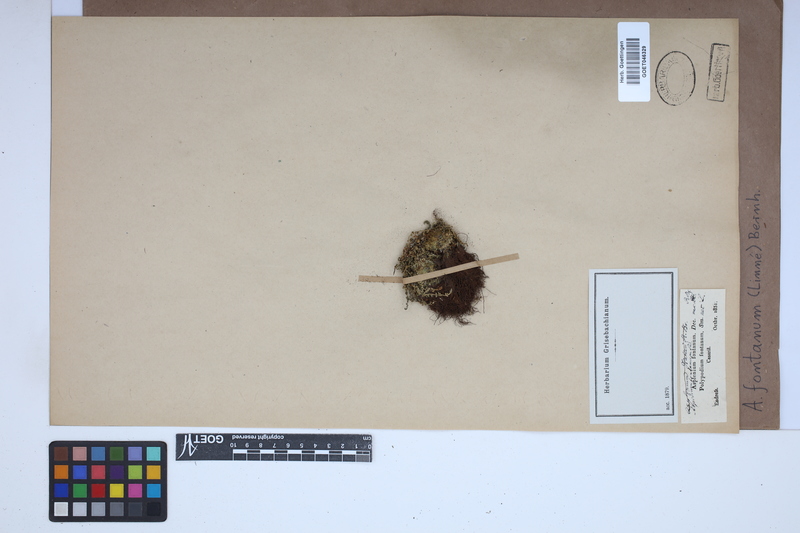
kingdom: Plantae
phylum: Tracheophyta
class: Polypodiopsida
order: Polypodiales
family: Aspleniaceae
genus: Asplenium
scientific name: Asplenium fontanum
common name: Fountain spleenwort
